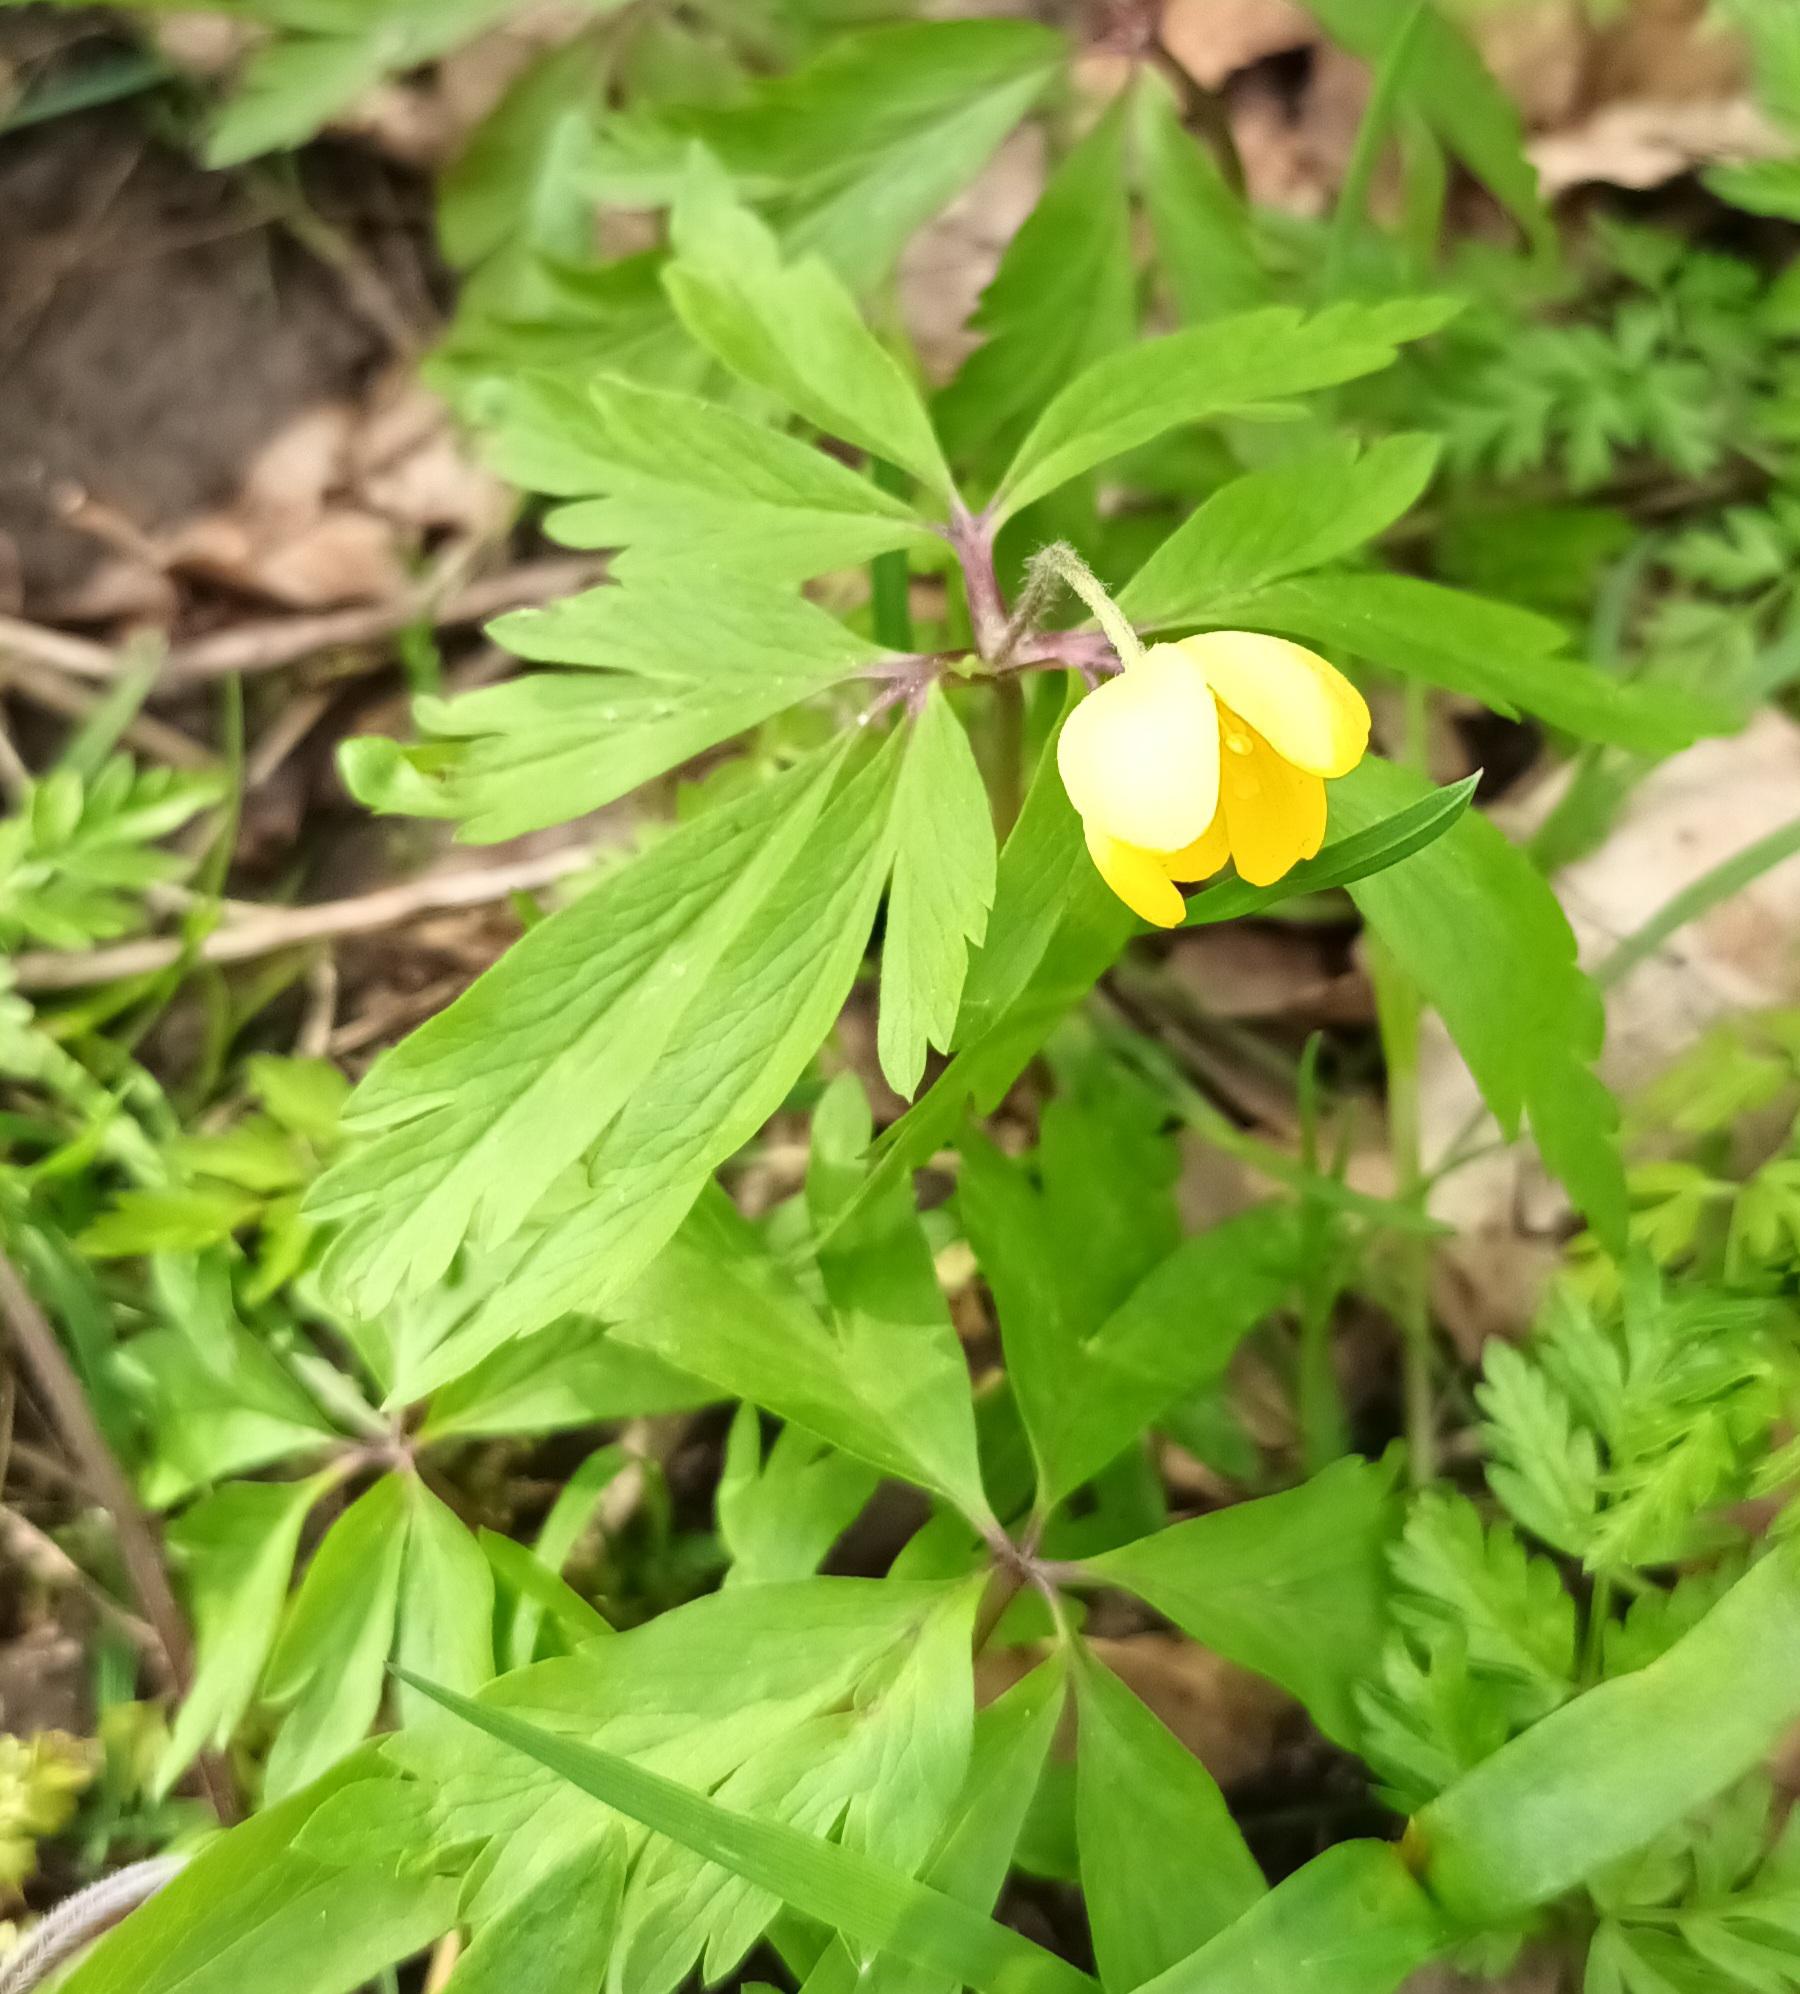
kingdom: Plantae
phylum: Tracheophyta
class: Magnoliopsida
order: Ranunculales
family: Ranunculaceae
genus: Anemone
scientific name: Anemone ranunculoides
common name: Gul anemone
